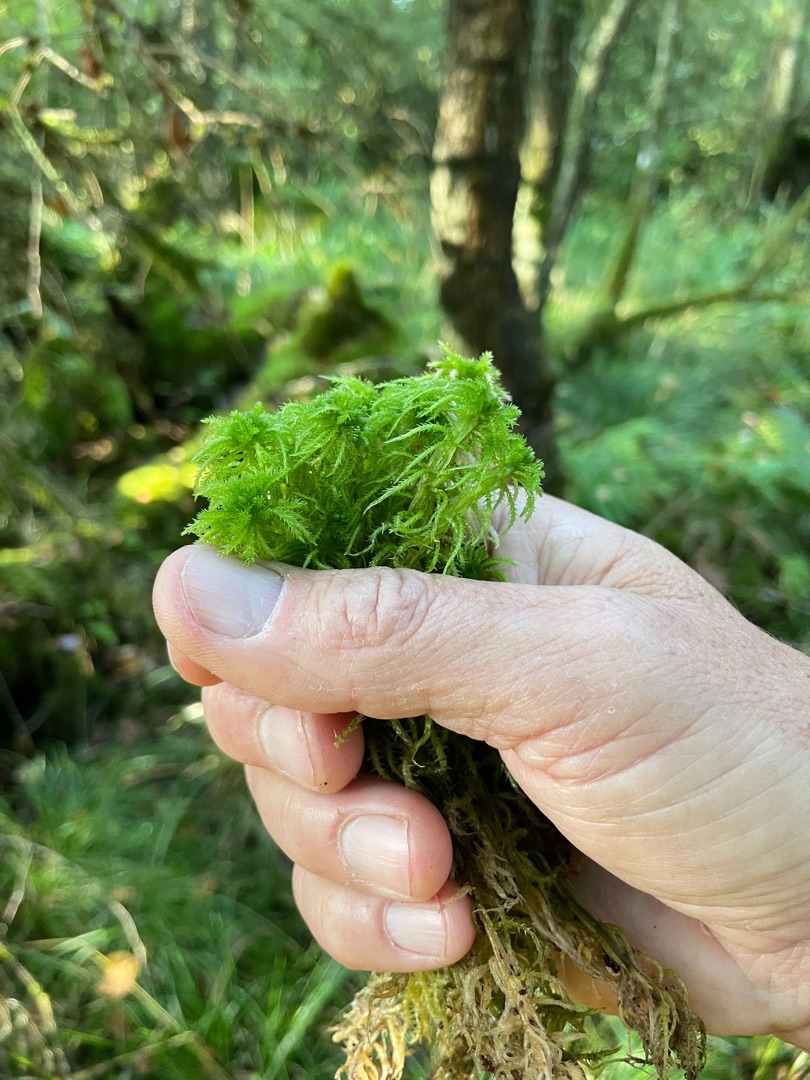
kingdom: Plantae
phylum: Bryophyta
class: Sphagnopsida
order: Sphagnales
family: Sphagnaceae
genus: Sphagnum
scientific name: Sphagnum squarrosum
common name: Udspærret tørvemos
